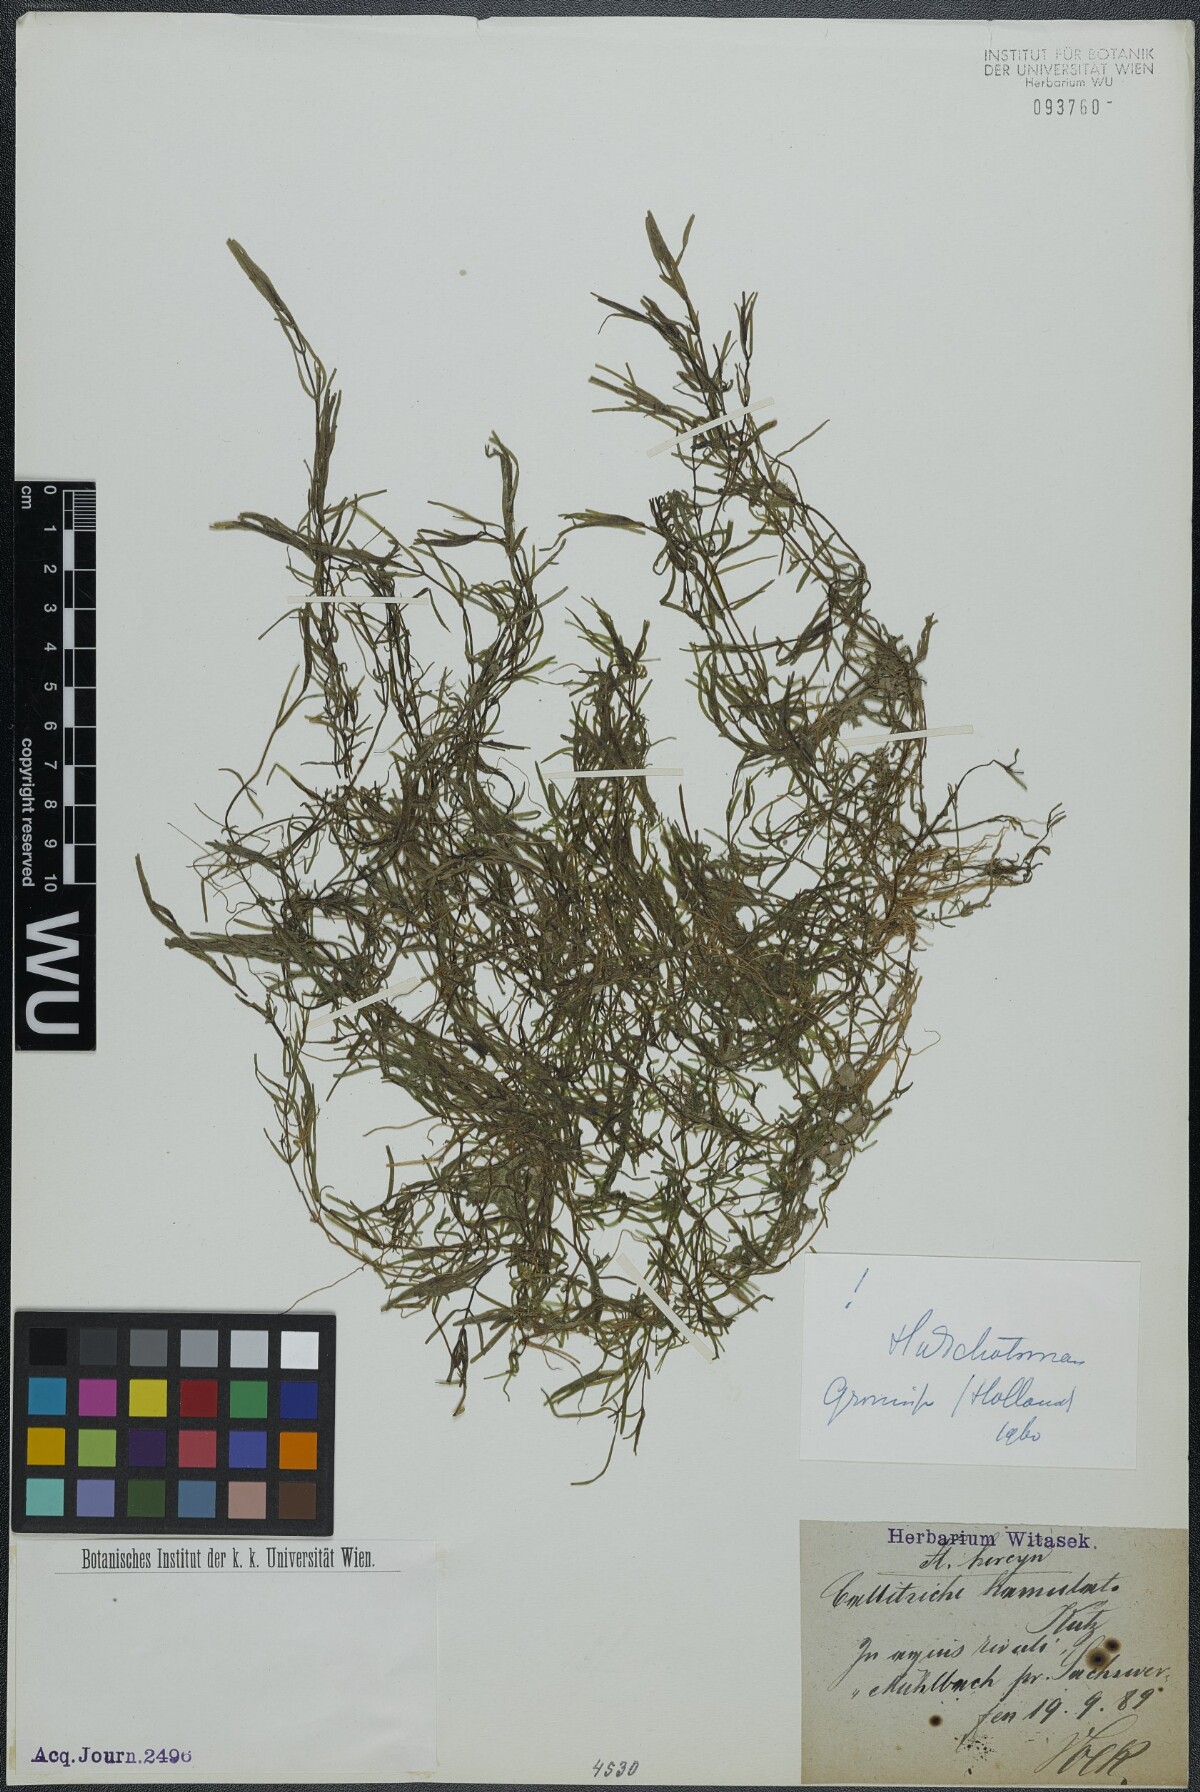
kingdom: Plantae
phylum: Tracheophyta
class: Magnoliopsida
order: Lamiales
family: Plantaginaceae
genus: Callitriche
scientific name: Callitriche hamulata
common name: Intermediate water-starwort
